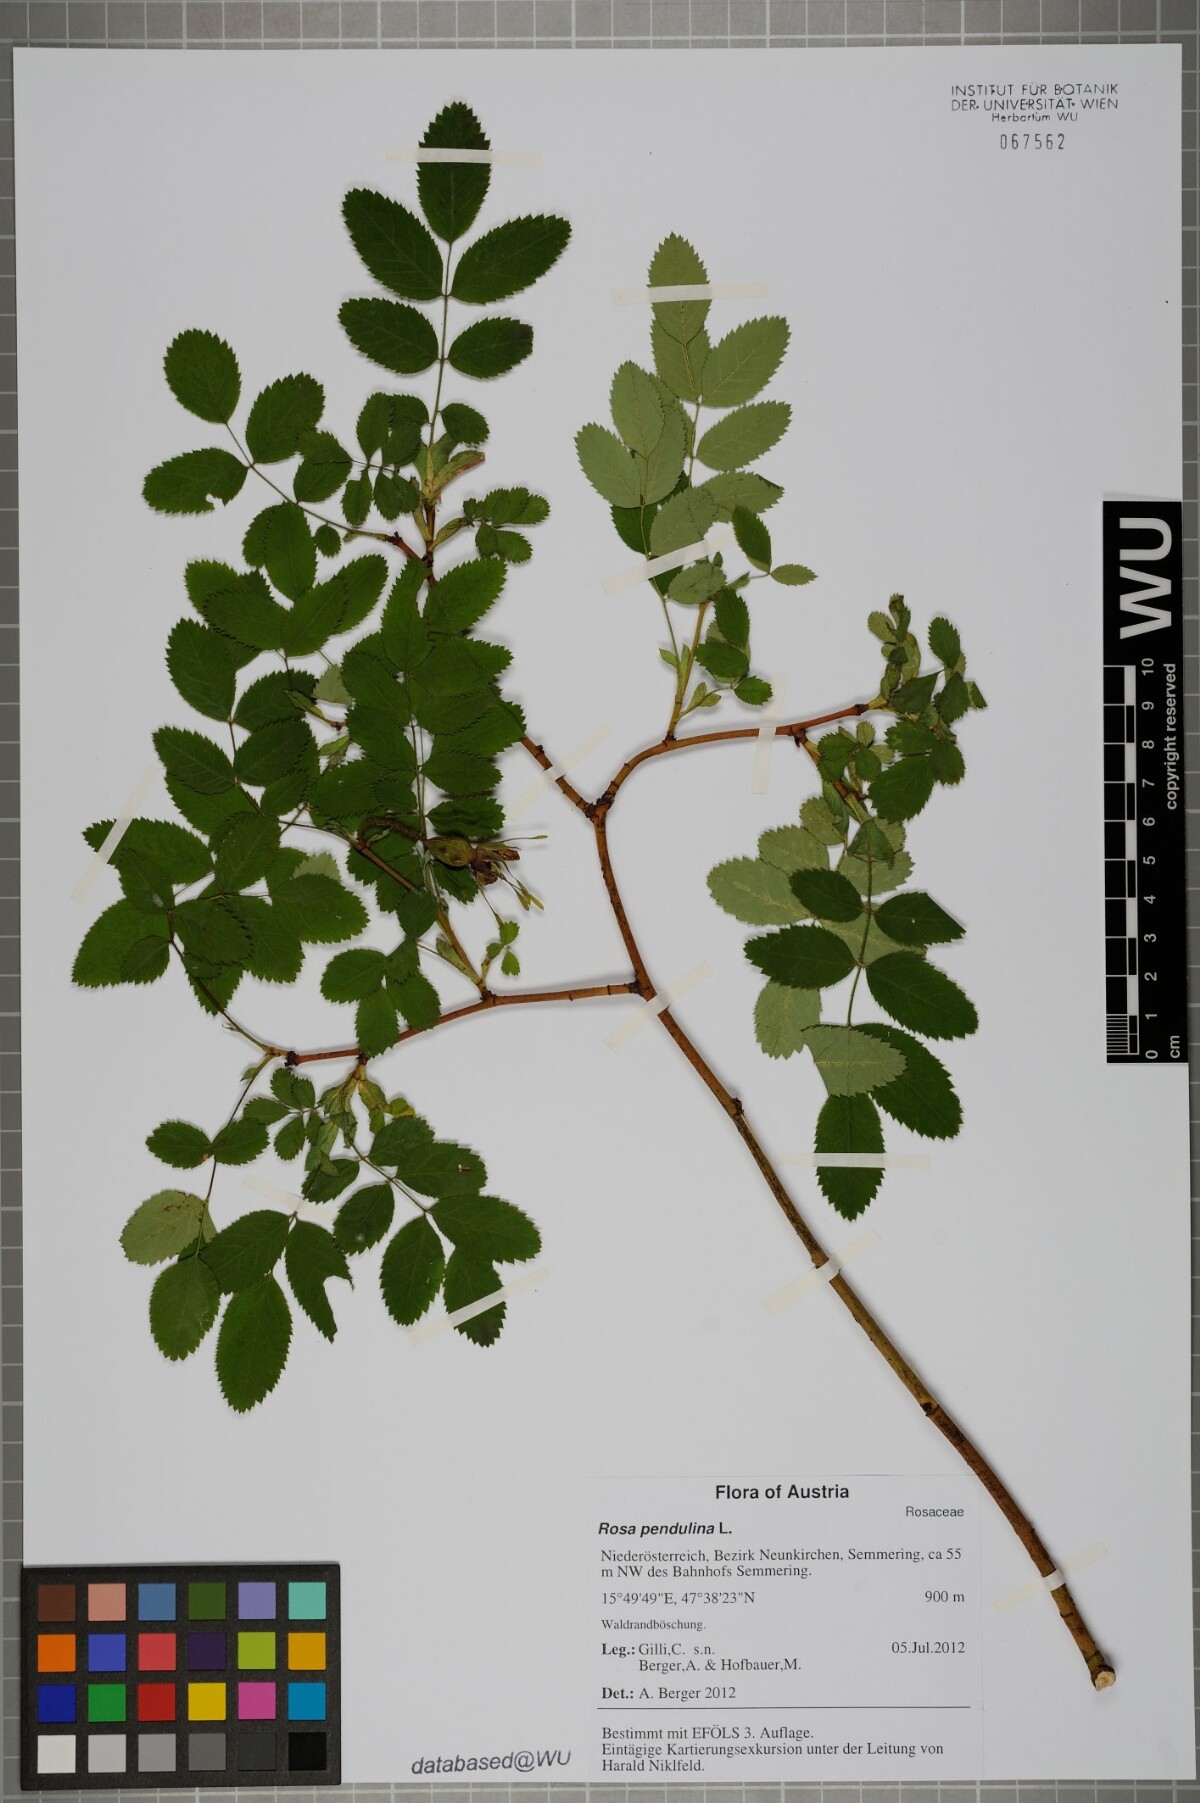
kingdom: Plantae
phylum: Tracheophyta
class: Magnoliopsida
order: Rosales
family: Rosaceae
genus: Rosa
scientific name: Rosa pendulina
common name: Alpine rose
